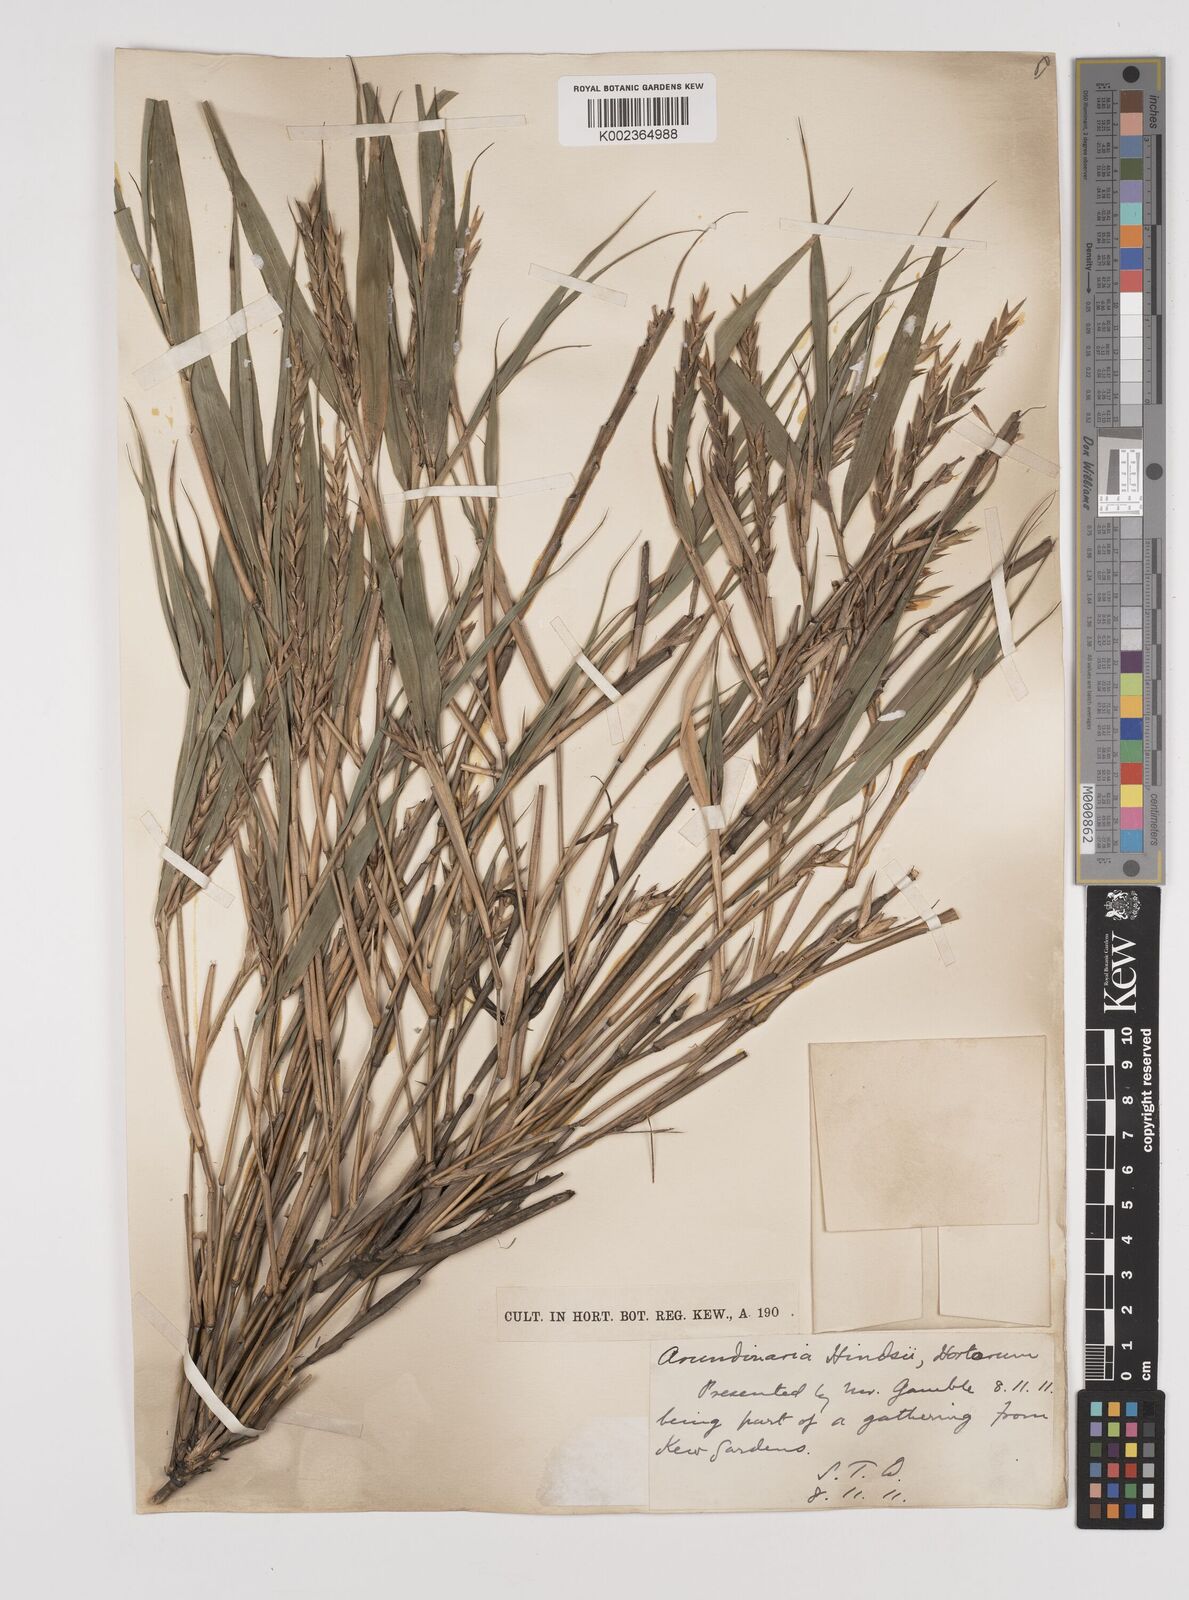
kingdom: Plantae
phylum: Tracheophyta
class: Liliopsida
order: Poales
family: Poaceae
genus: Pleioblastus
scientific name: Pleioblastus gramineus
